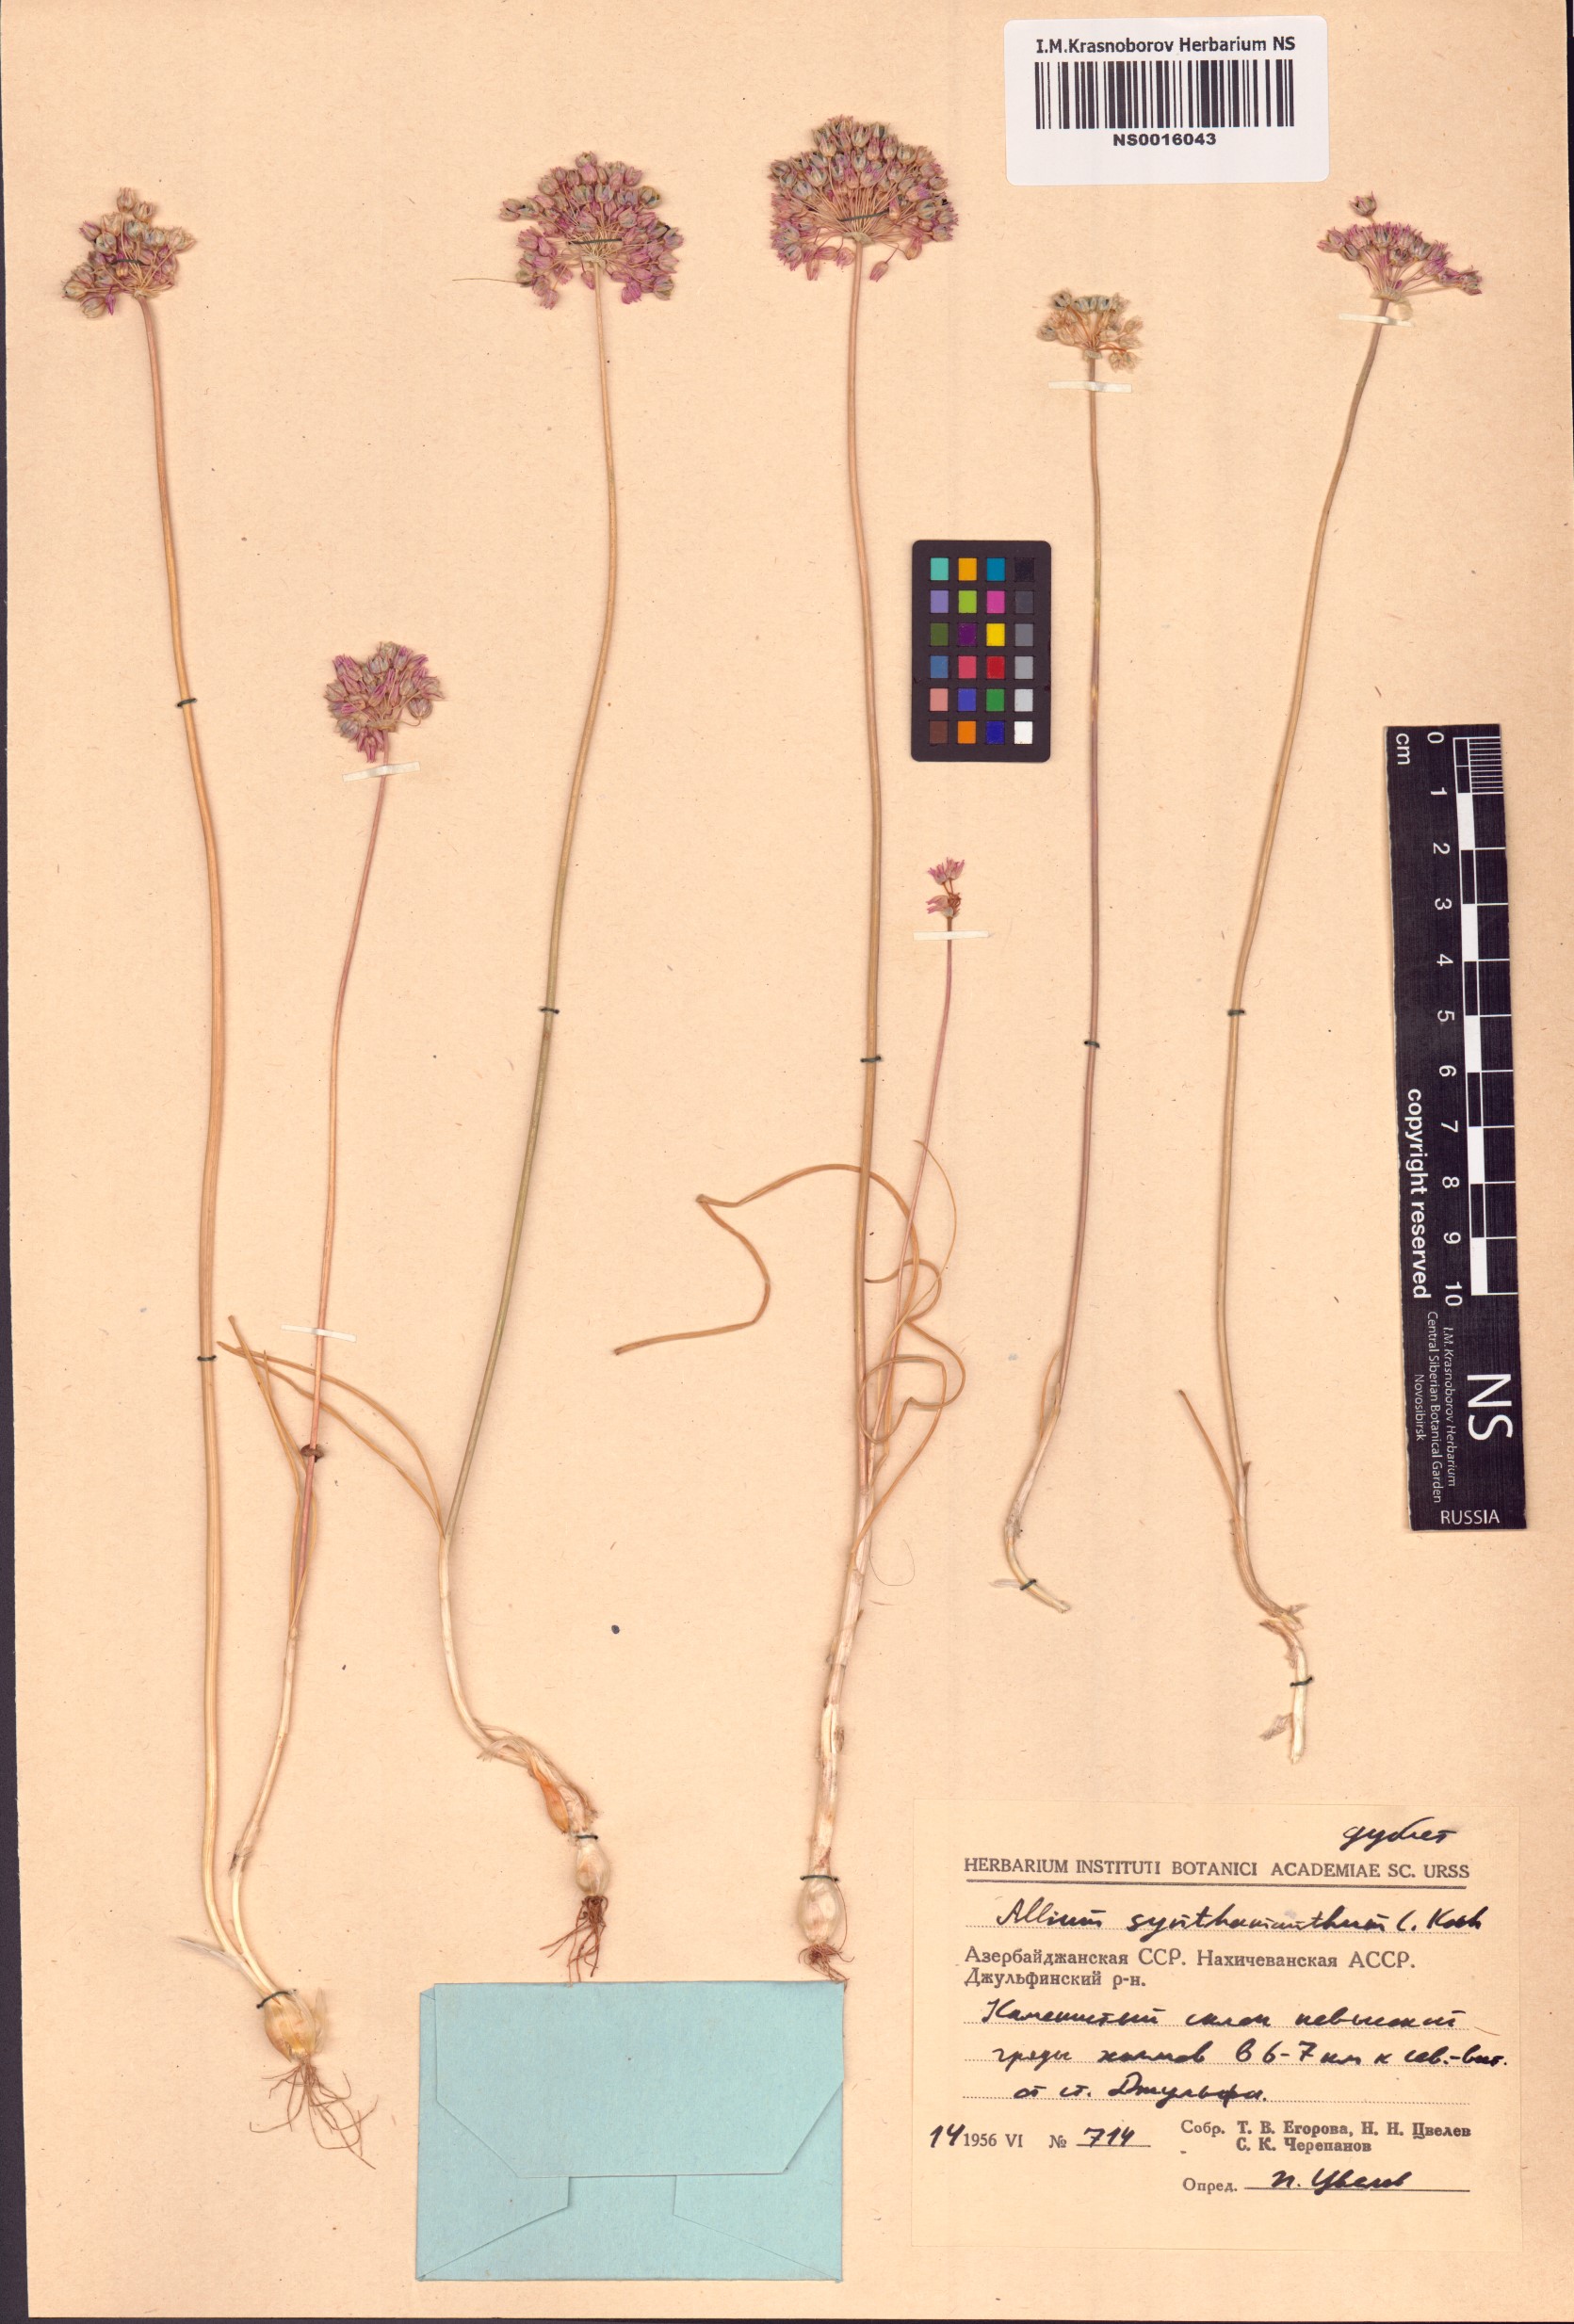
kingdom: Plantae
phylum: Tracheophyta
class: Liliopsida
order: Asparagales
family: Amaryllidaceae
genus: Allium
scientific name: Allium rubellum
